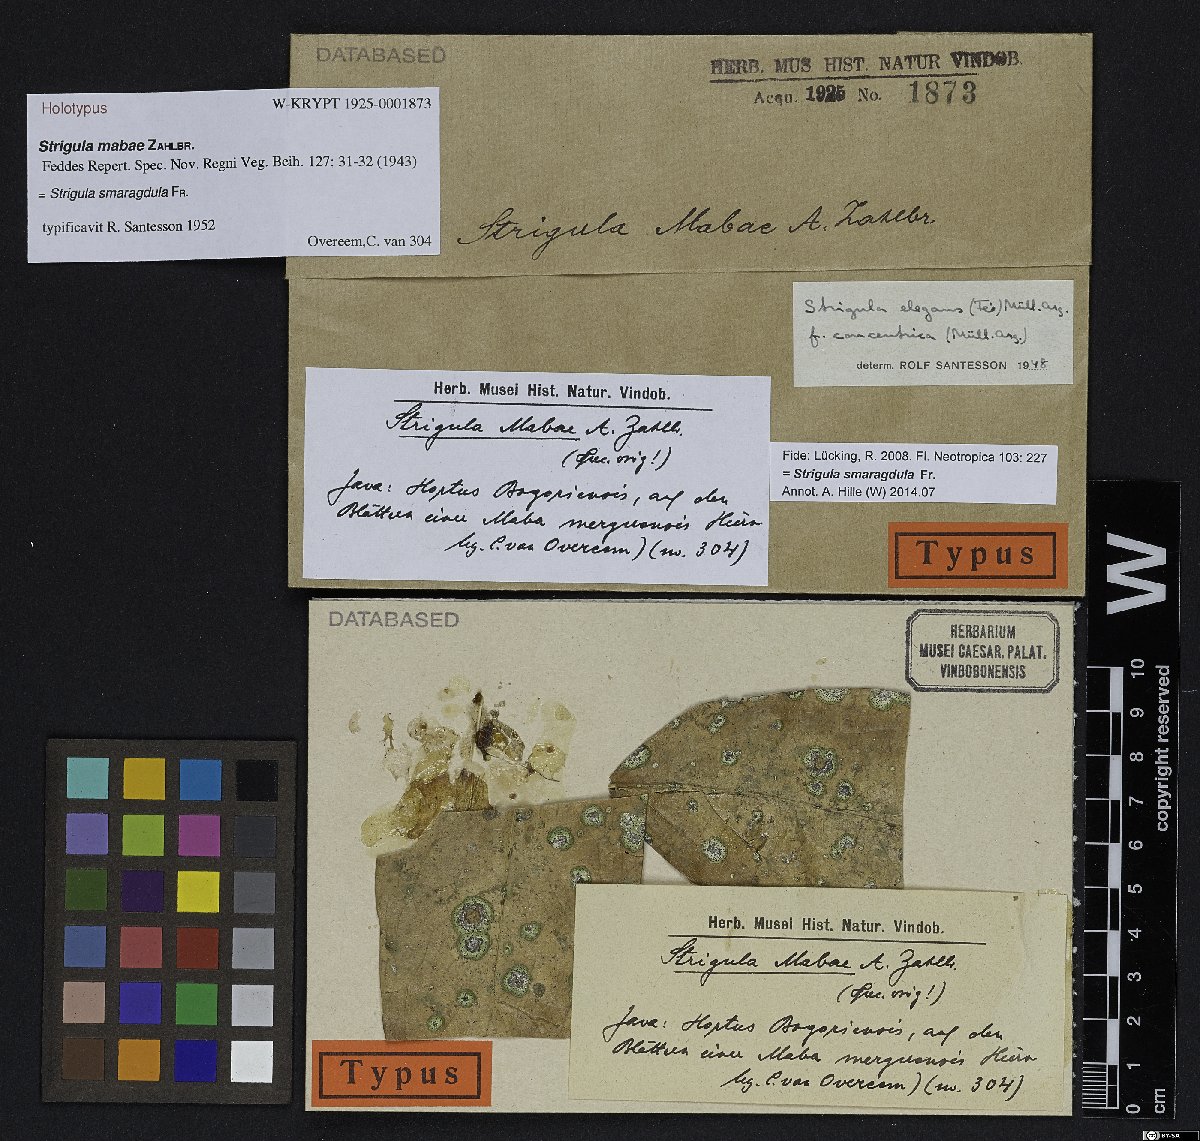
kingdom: Fungi
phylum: Ascomycota
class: Dothideomycetes
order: Strigulales
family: Strigulaceae
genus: Strigula
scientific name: Strigula
